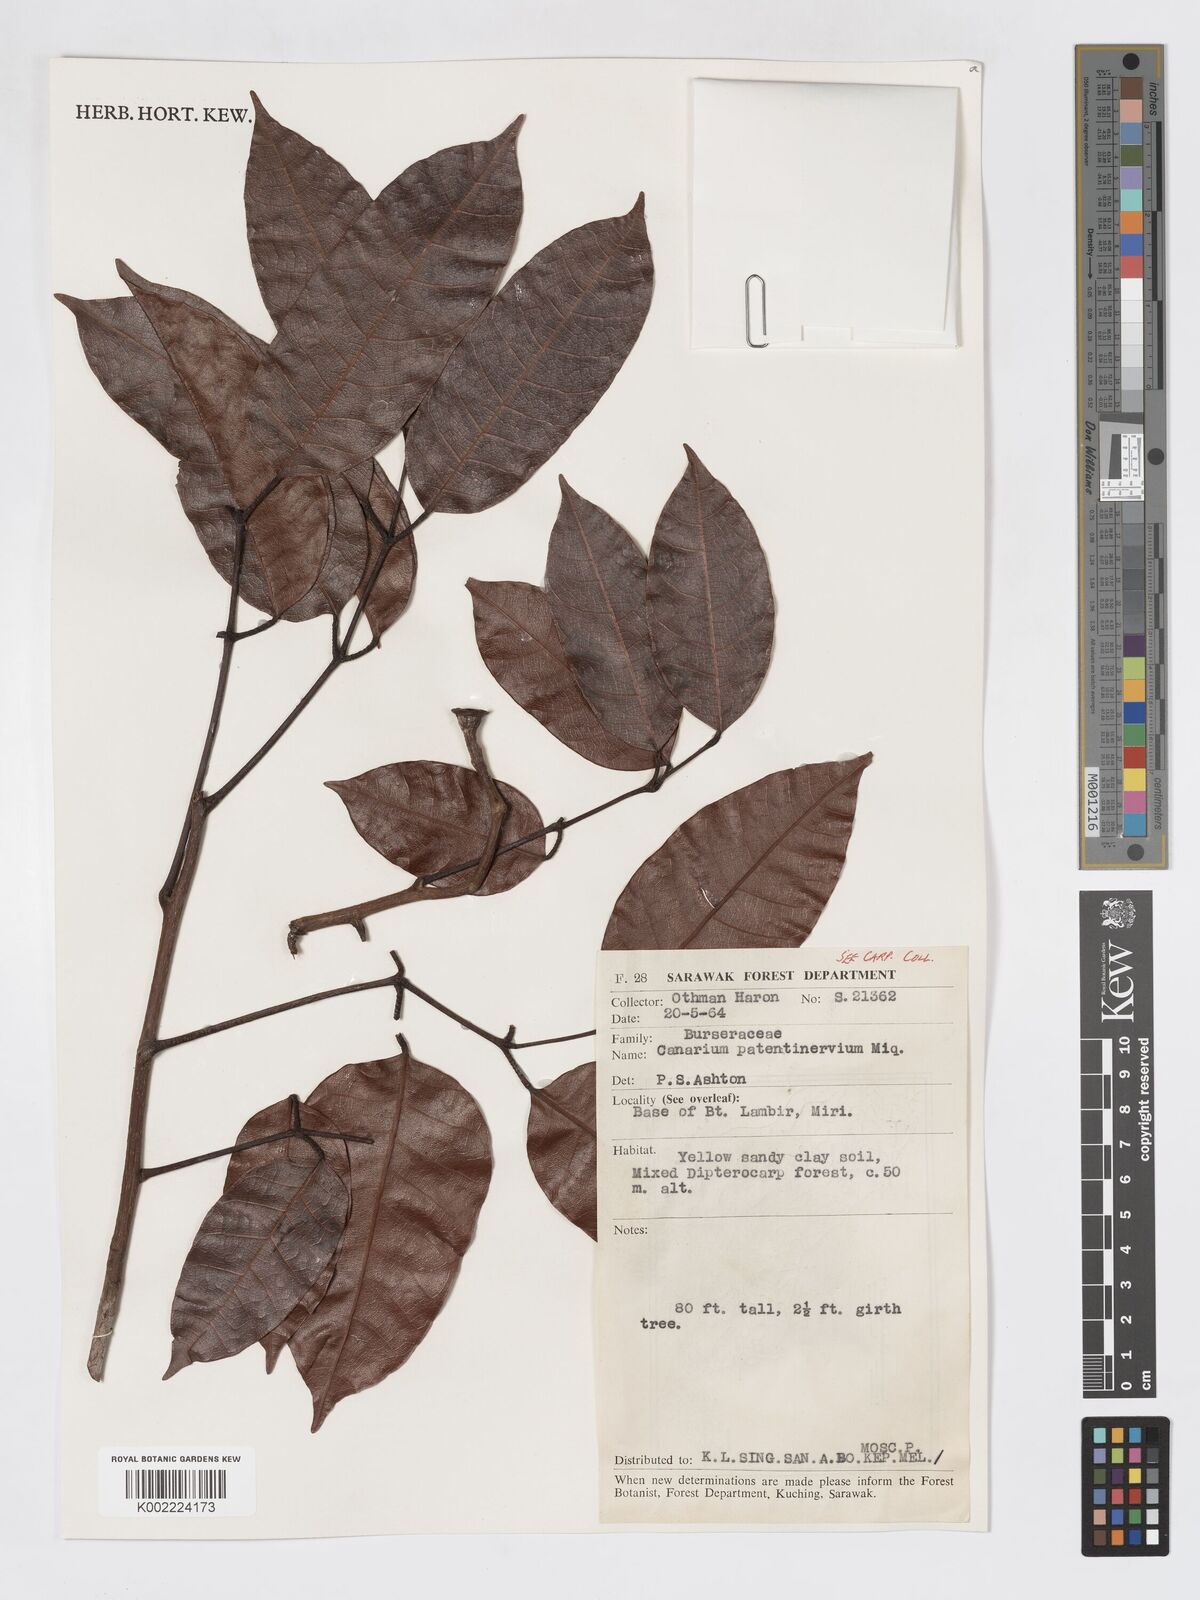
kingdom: Plantae
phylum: Tracheophyta
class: Magnoliopsida
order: Sapindales
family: Burseraceae
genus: Canarium
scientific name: Canarium patentinervium
